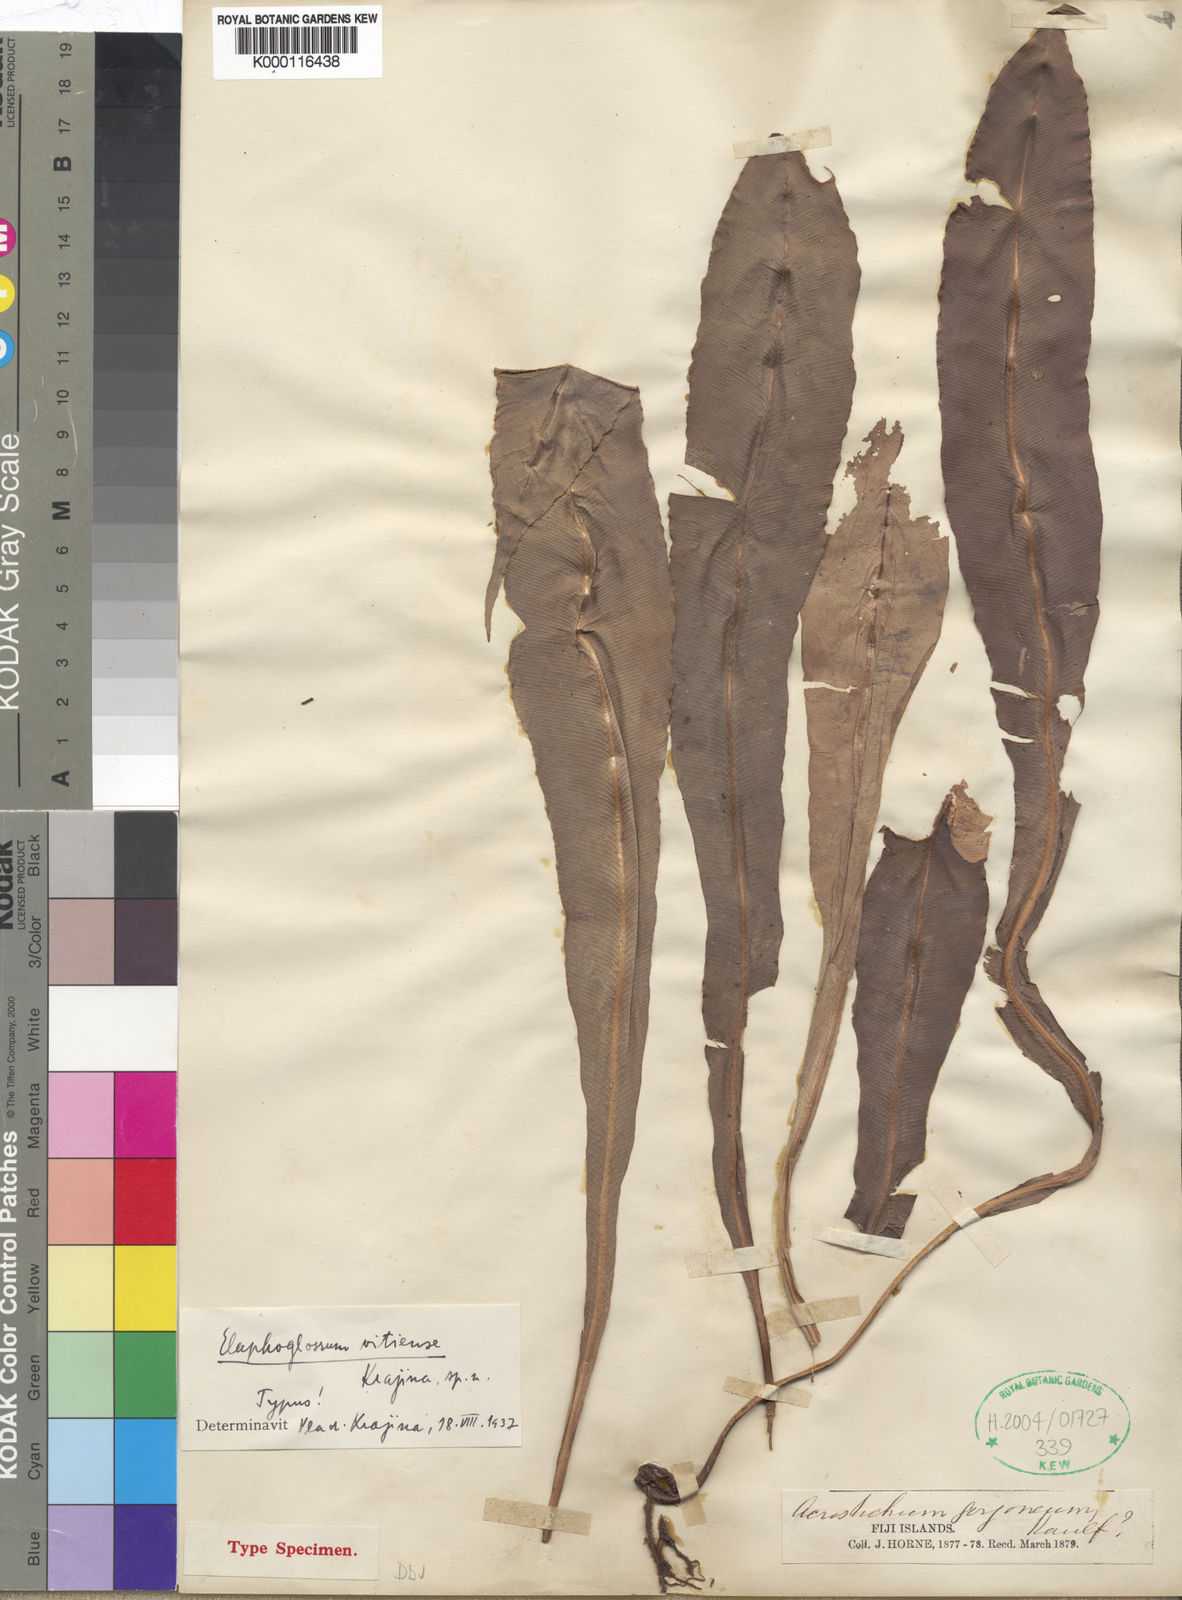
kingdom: Plantae
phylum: Tracheophyta
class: Polypodiopsida
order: Polypodiales
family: Dryopteridaceae
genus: Elaphoglossum
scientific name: Elaphoglossum
